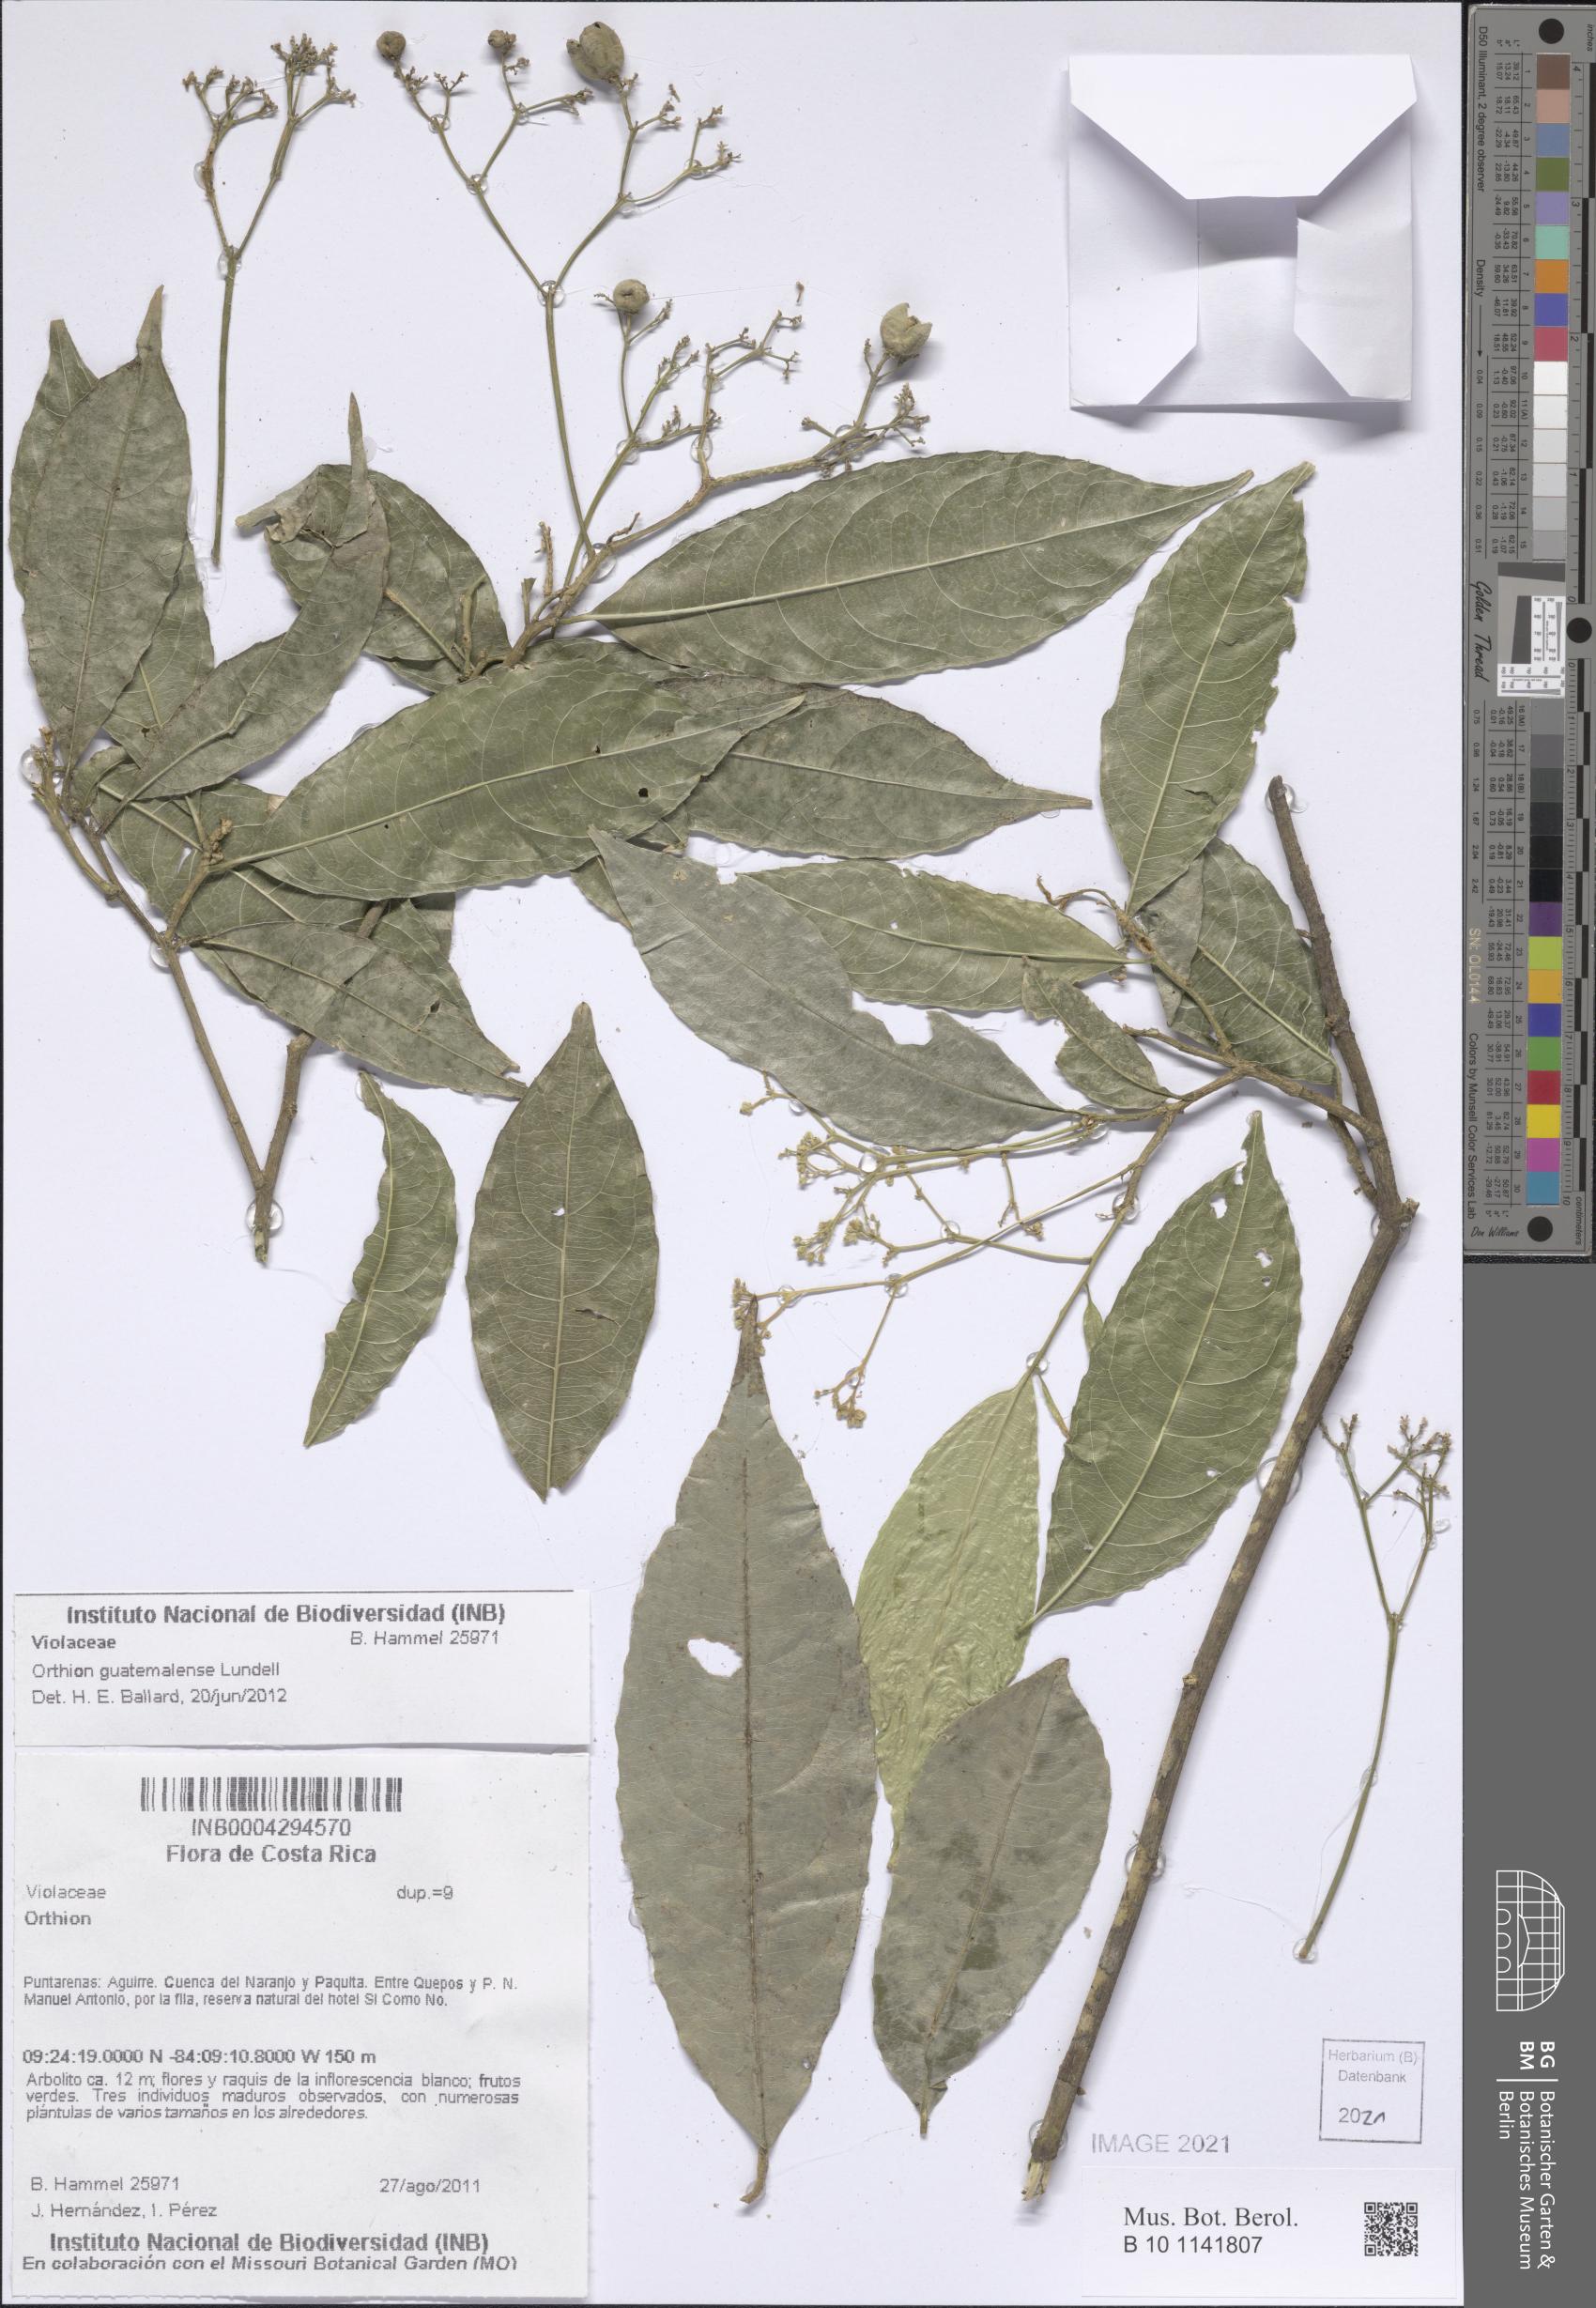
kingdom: Plantae
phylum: Tracheophyta
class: Magnoliopsida
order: Malpighiales
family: Violaceae
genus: Orthion
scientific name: Orthion guatemalense
